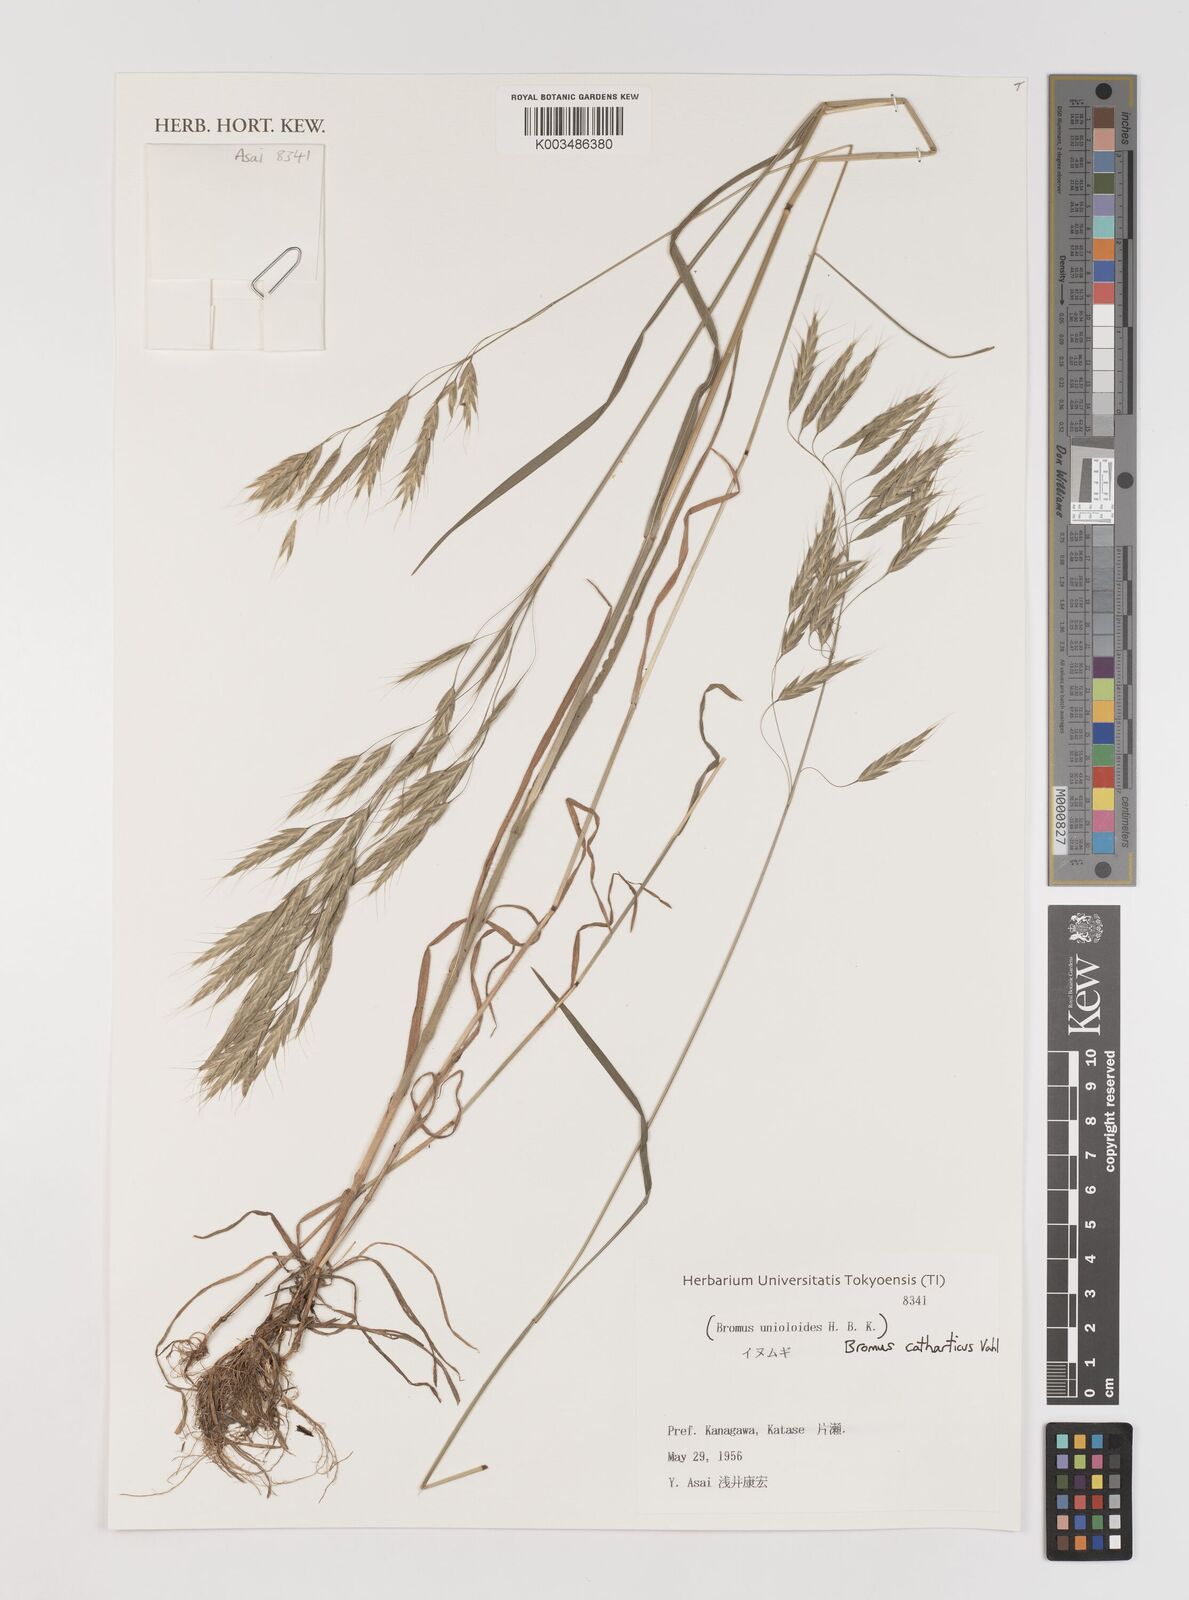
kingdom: Plantae
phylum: Tracheophyta
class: Liliopsida
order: Poales
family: Poaceae
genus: Bromus
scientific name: Bromus catharticus
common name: Rescuegrass
